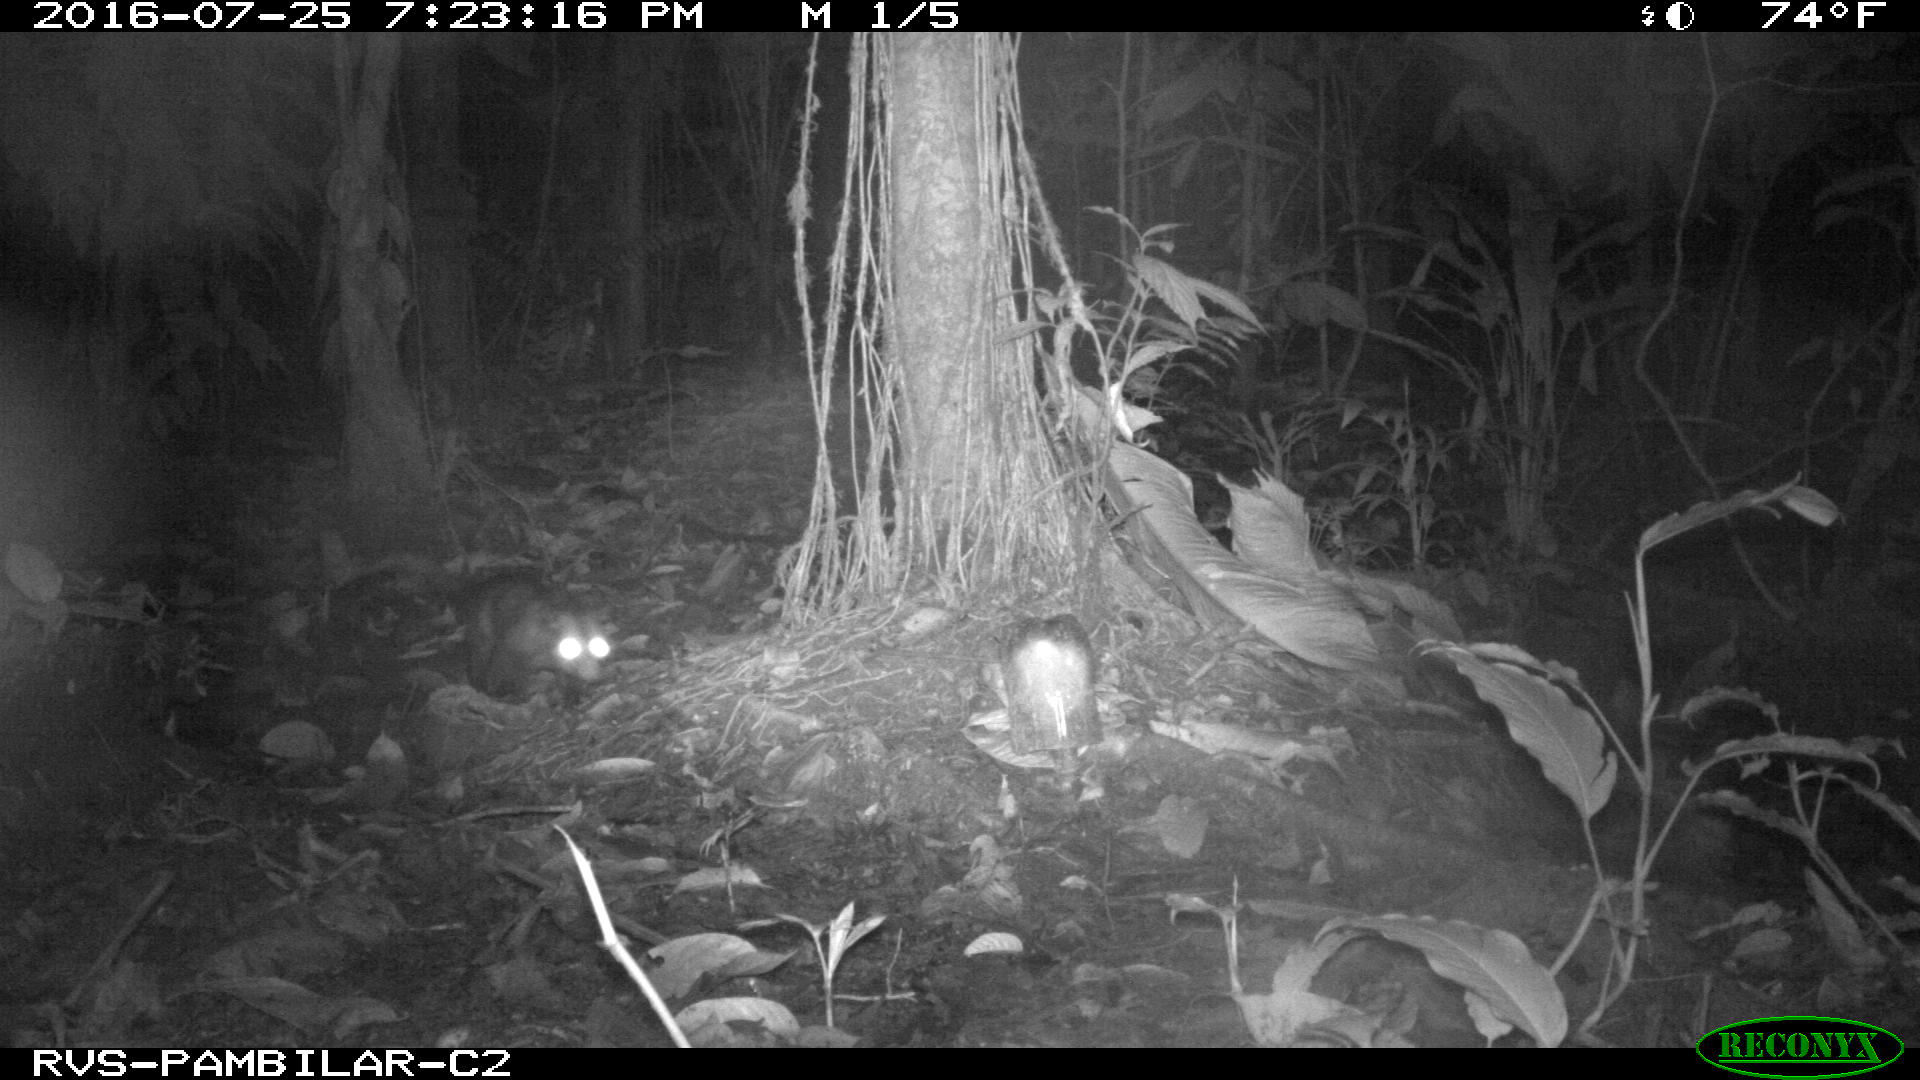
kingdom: Animalia
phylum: Chordata
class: Mammalia
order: Didelphimorphia
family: Didelphidae
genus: Didelphis
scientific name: Didelphis marsupialis
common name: Common opossum
